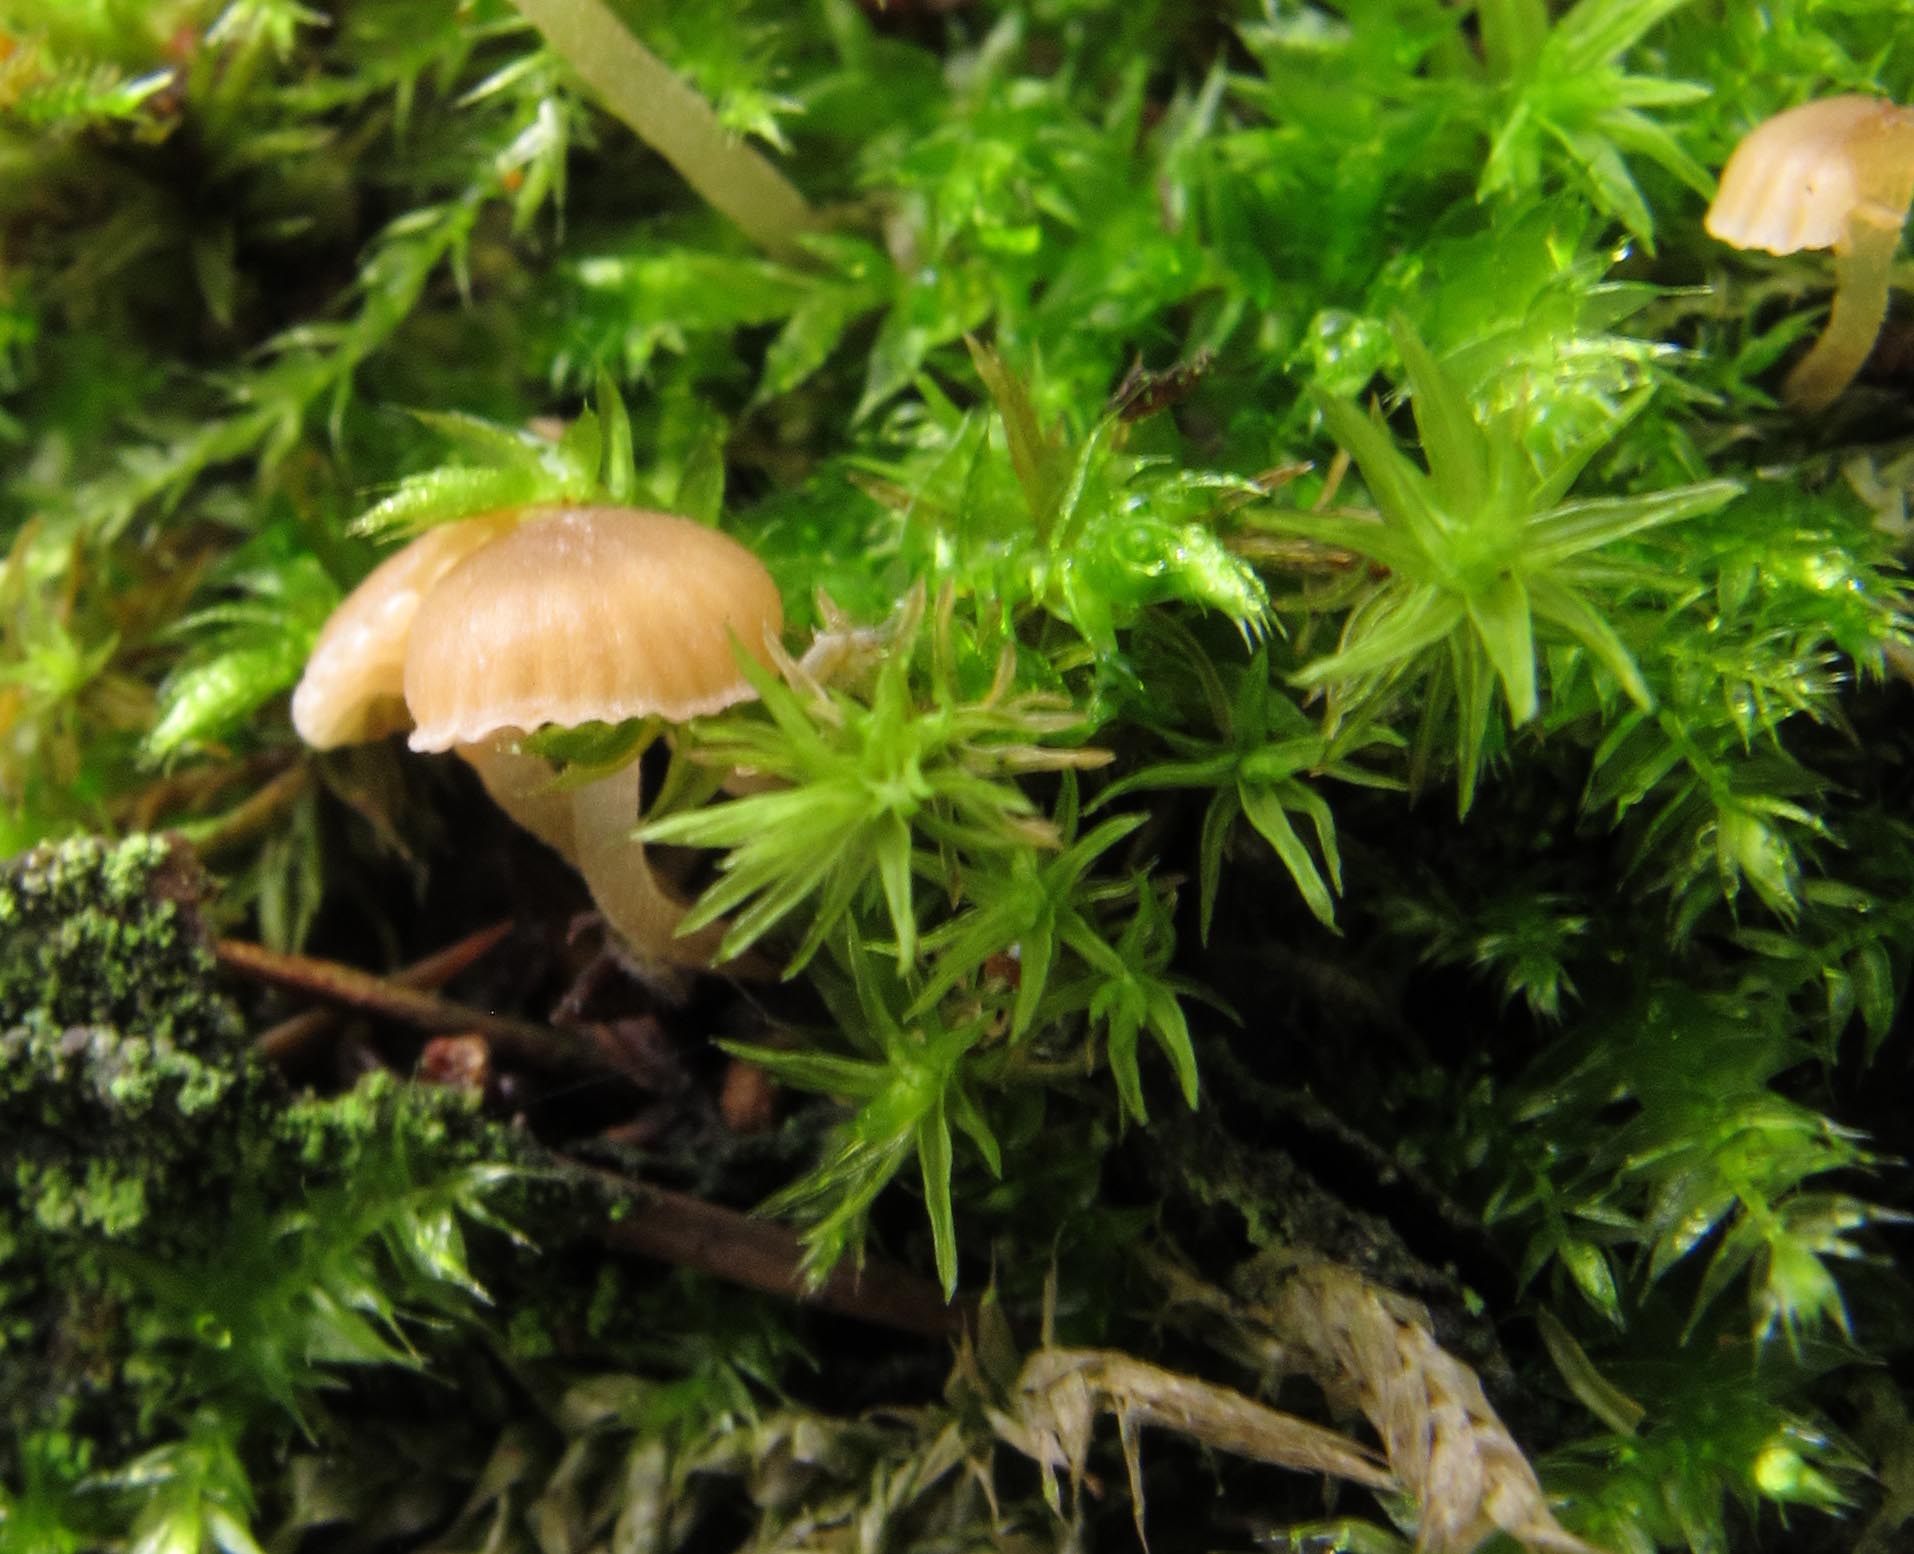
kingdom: Fungi
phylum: Basidiomycota
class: Agaricomycetes
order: Agaricales
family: Porotheleaceae
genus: Phloeomana
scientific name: Phloeomana clavata
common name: brunbladet huesvamp
